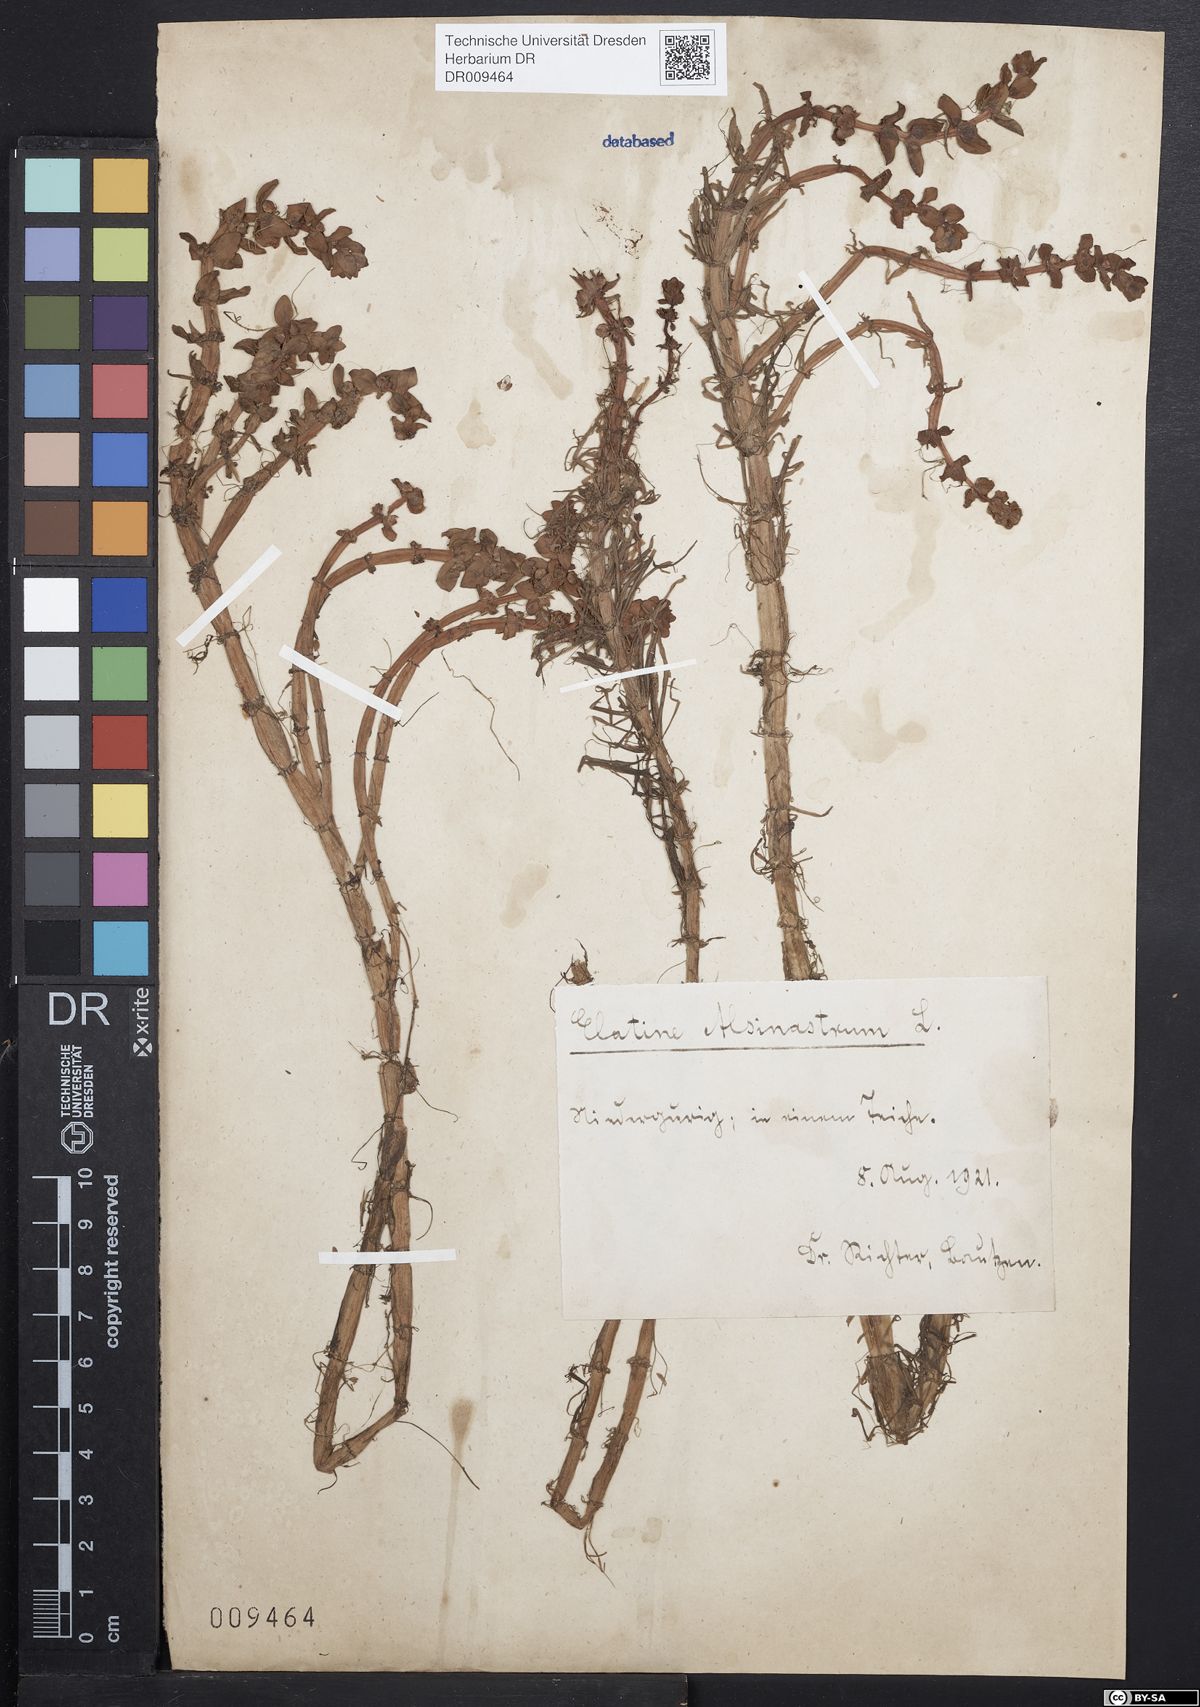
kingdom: Plantae
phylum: Tracheophyta
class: Magnoliopsida
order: Malpighiales
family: Elatinaceae
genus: Elatine
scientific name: Elatine alsinastrum
